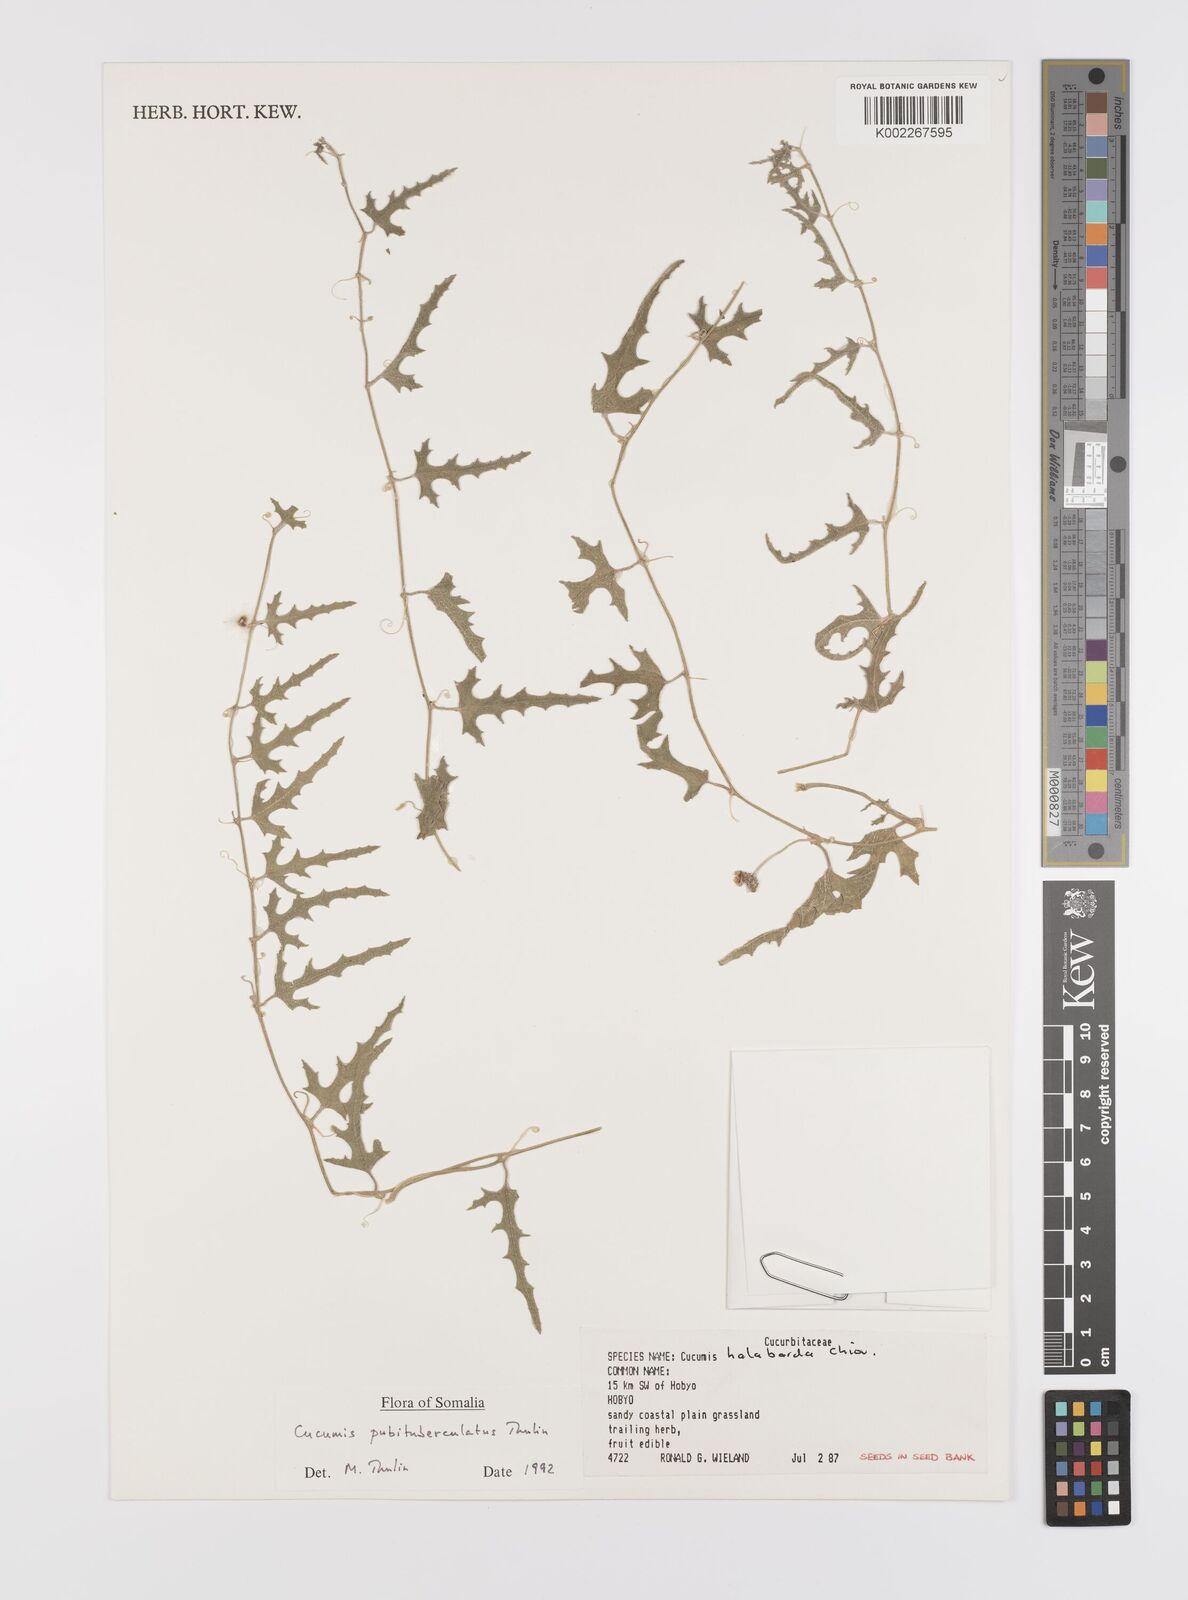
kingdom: Plantae
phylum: Tracheophyta
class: Magnoliopsida
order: Cucurbitales
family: Cucurbitaceae
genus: Cucumis
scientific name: Cucumis pubituberculatus
